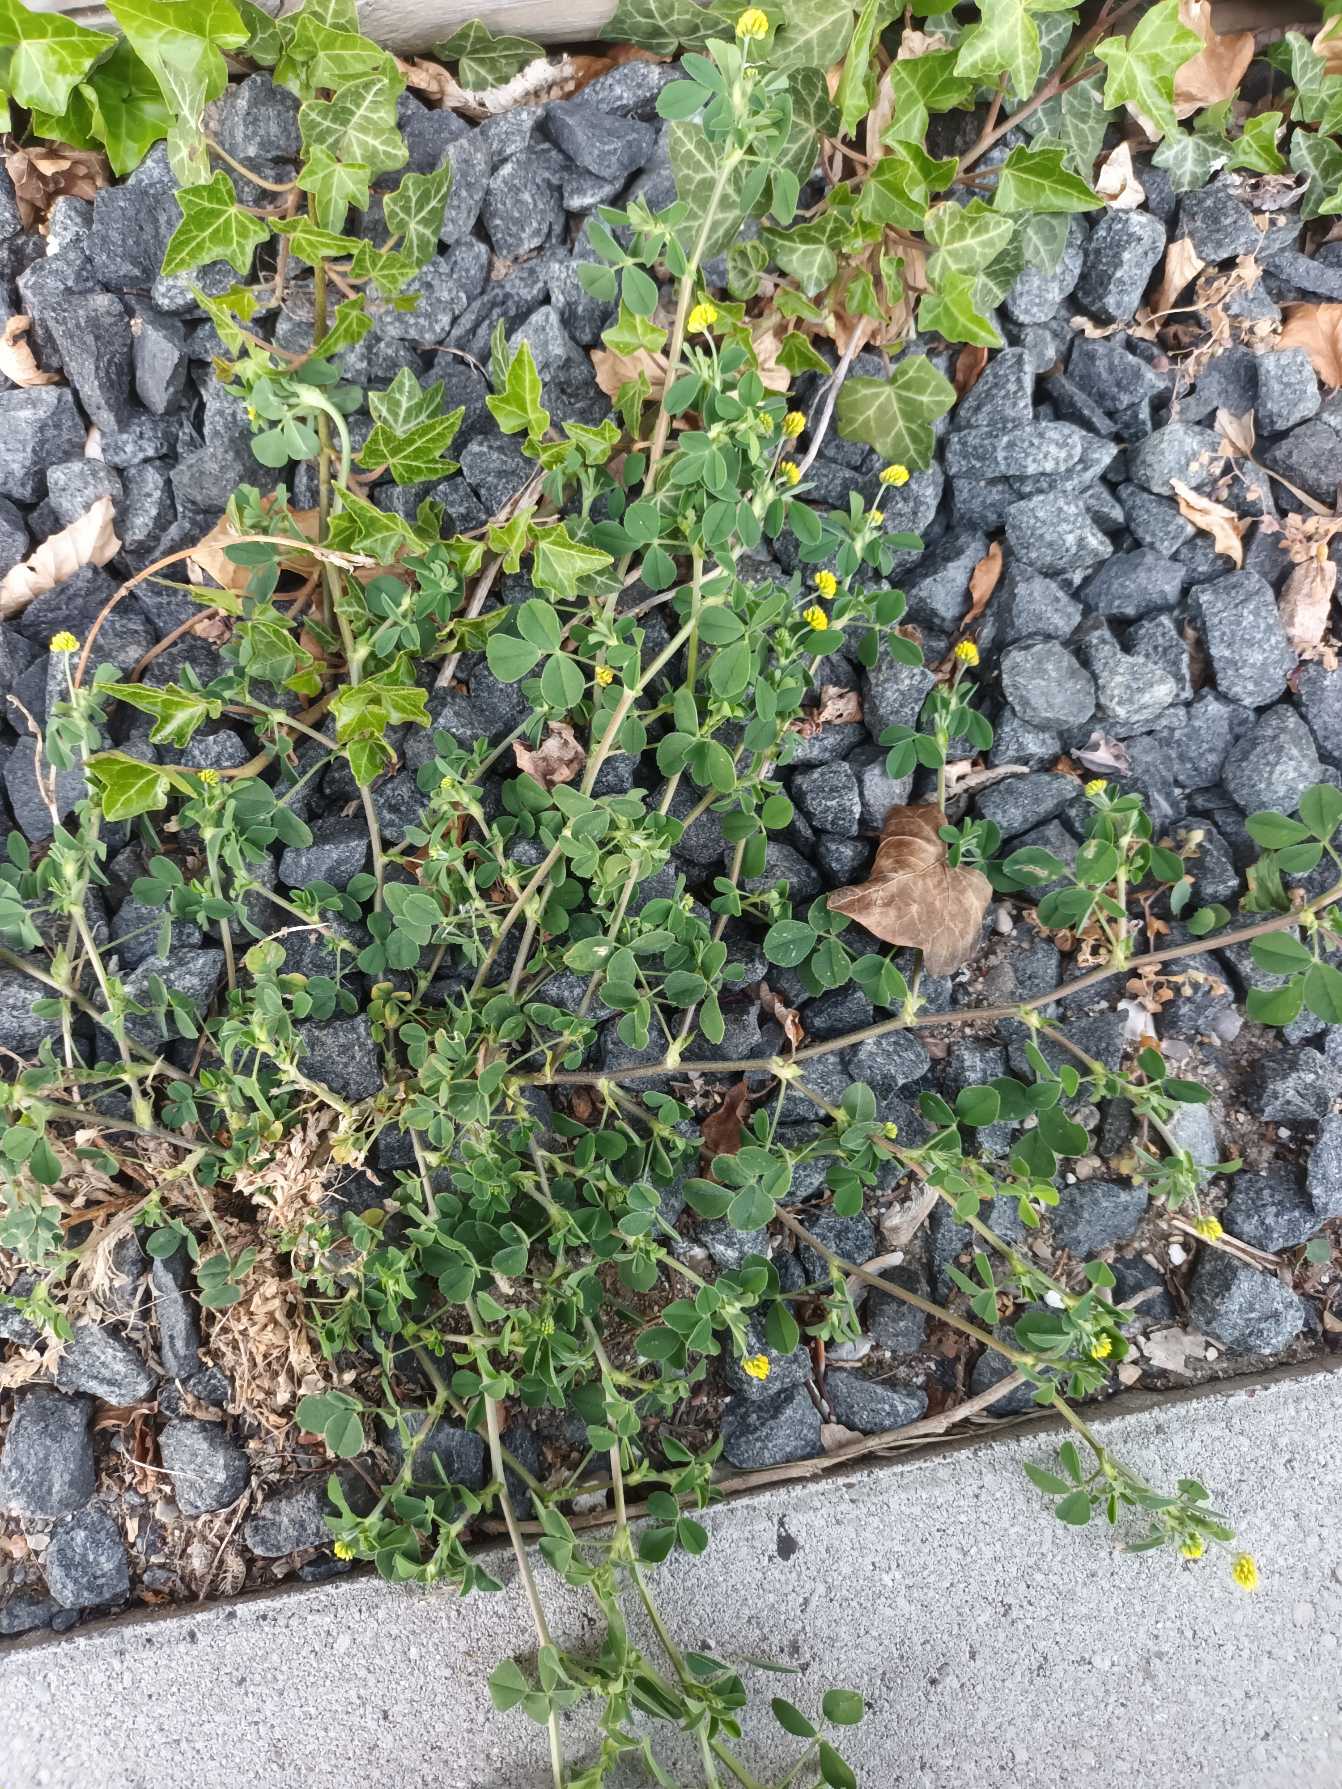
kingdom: Plantae
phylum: Tracheophyta
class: Magnoliopsida
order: Fabales
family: Fabaceae
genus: Medicago
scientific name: Medicago lupulina
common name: Humle-sneglebælg
